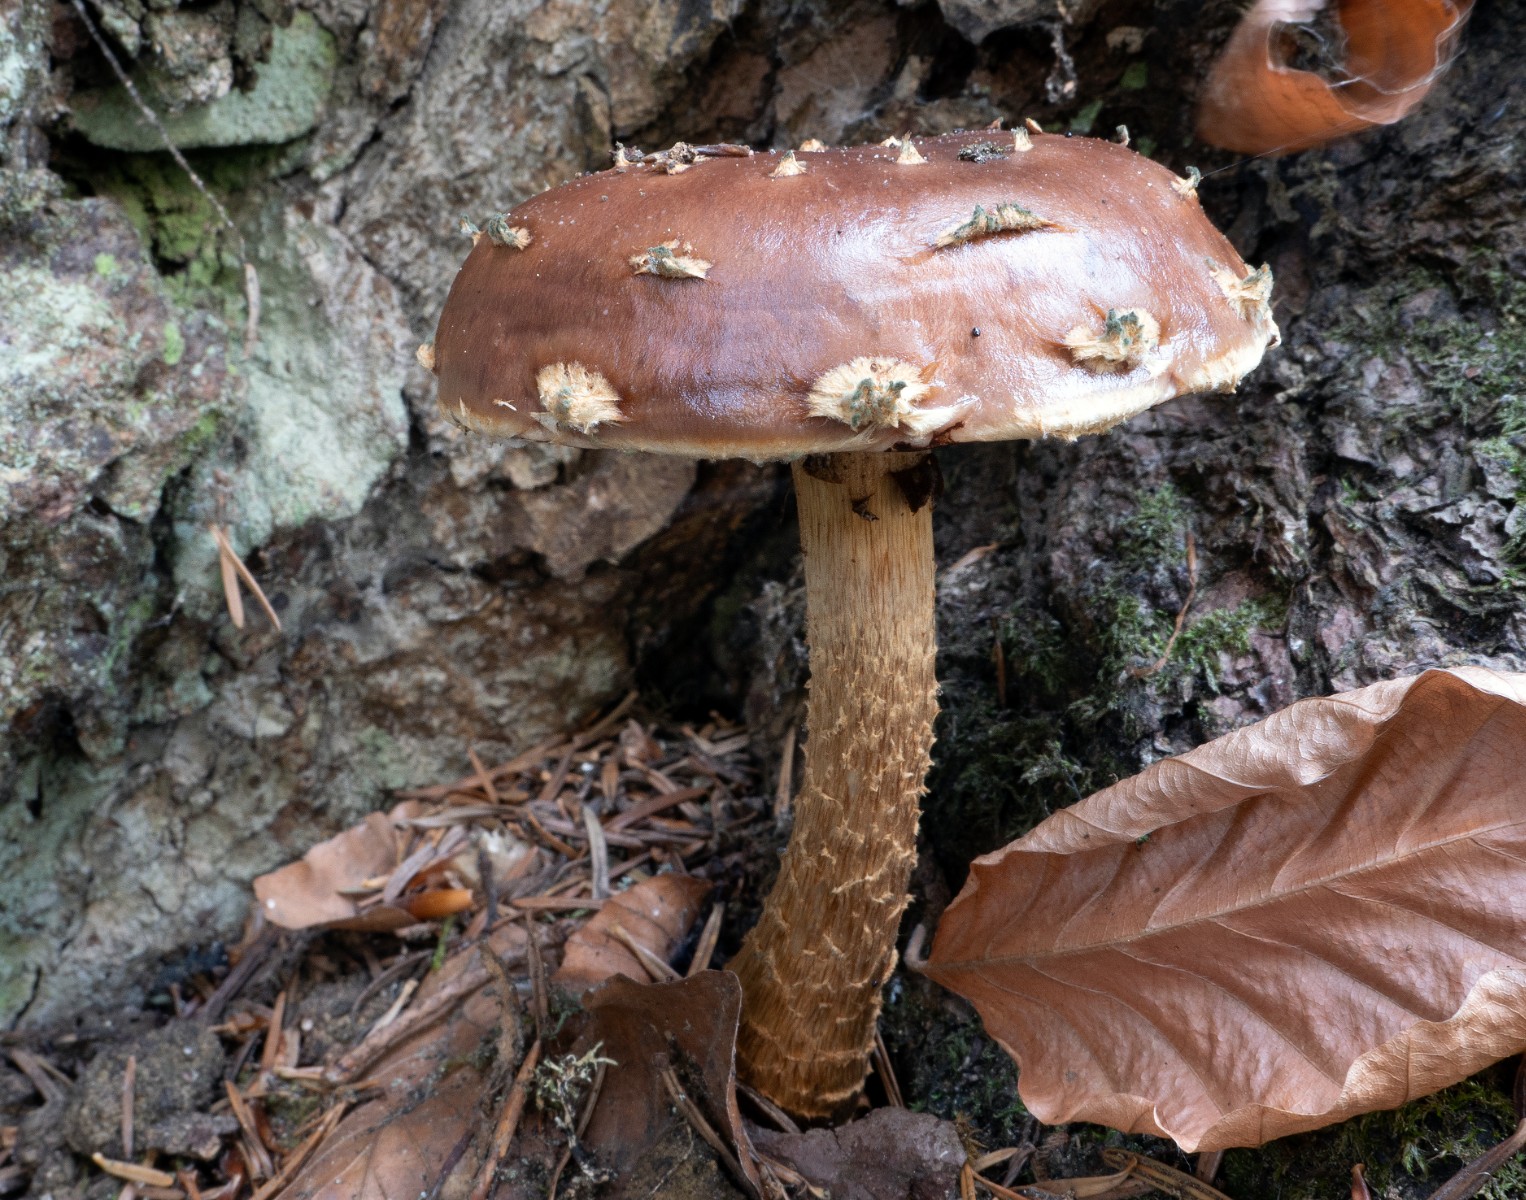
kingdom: Fungi
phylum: Basidiomycota
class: Agaricomycetes
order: Agaricales
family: Tubariaceae
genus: Hemistropharia
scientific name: Hemistropharia albocrenulata
